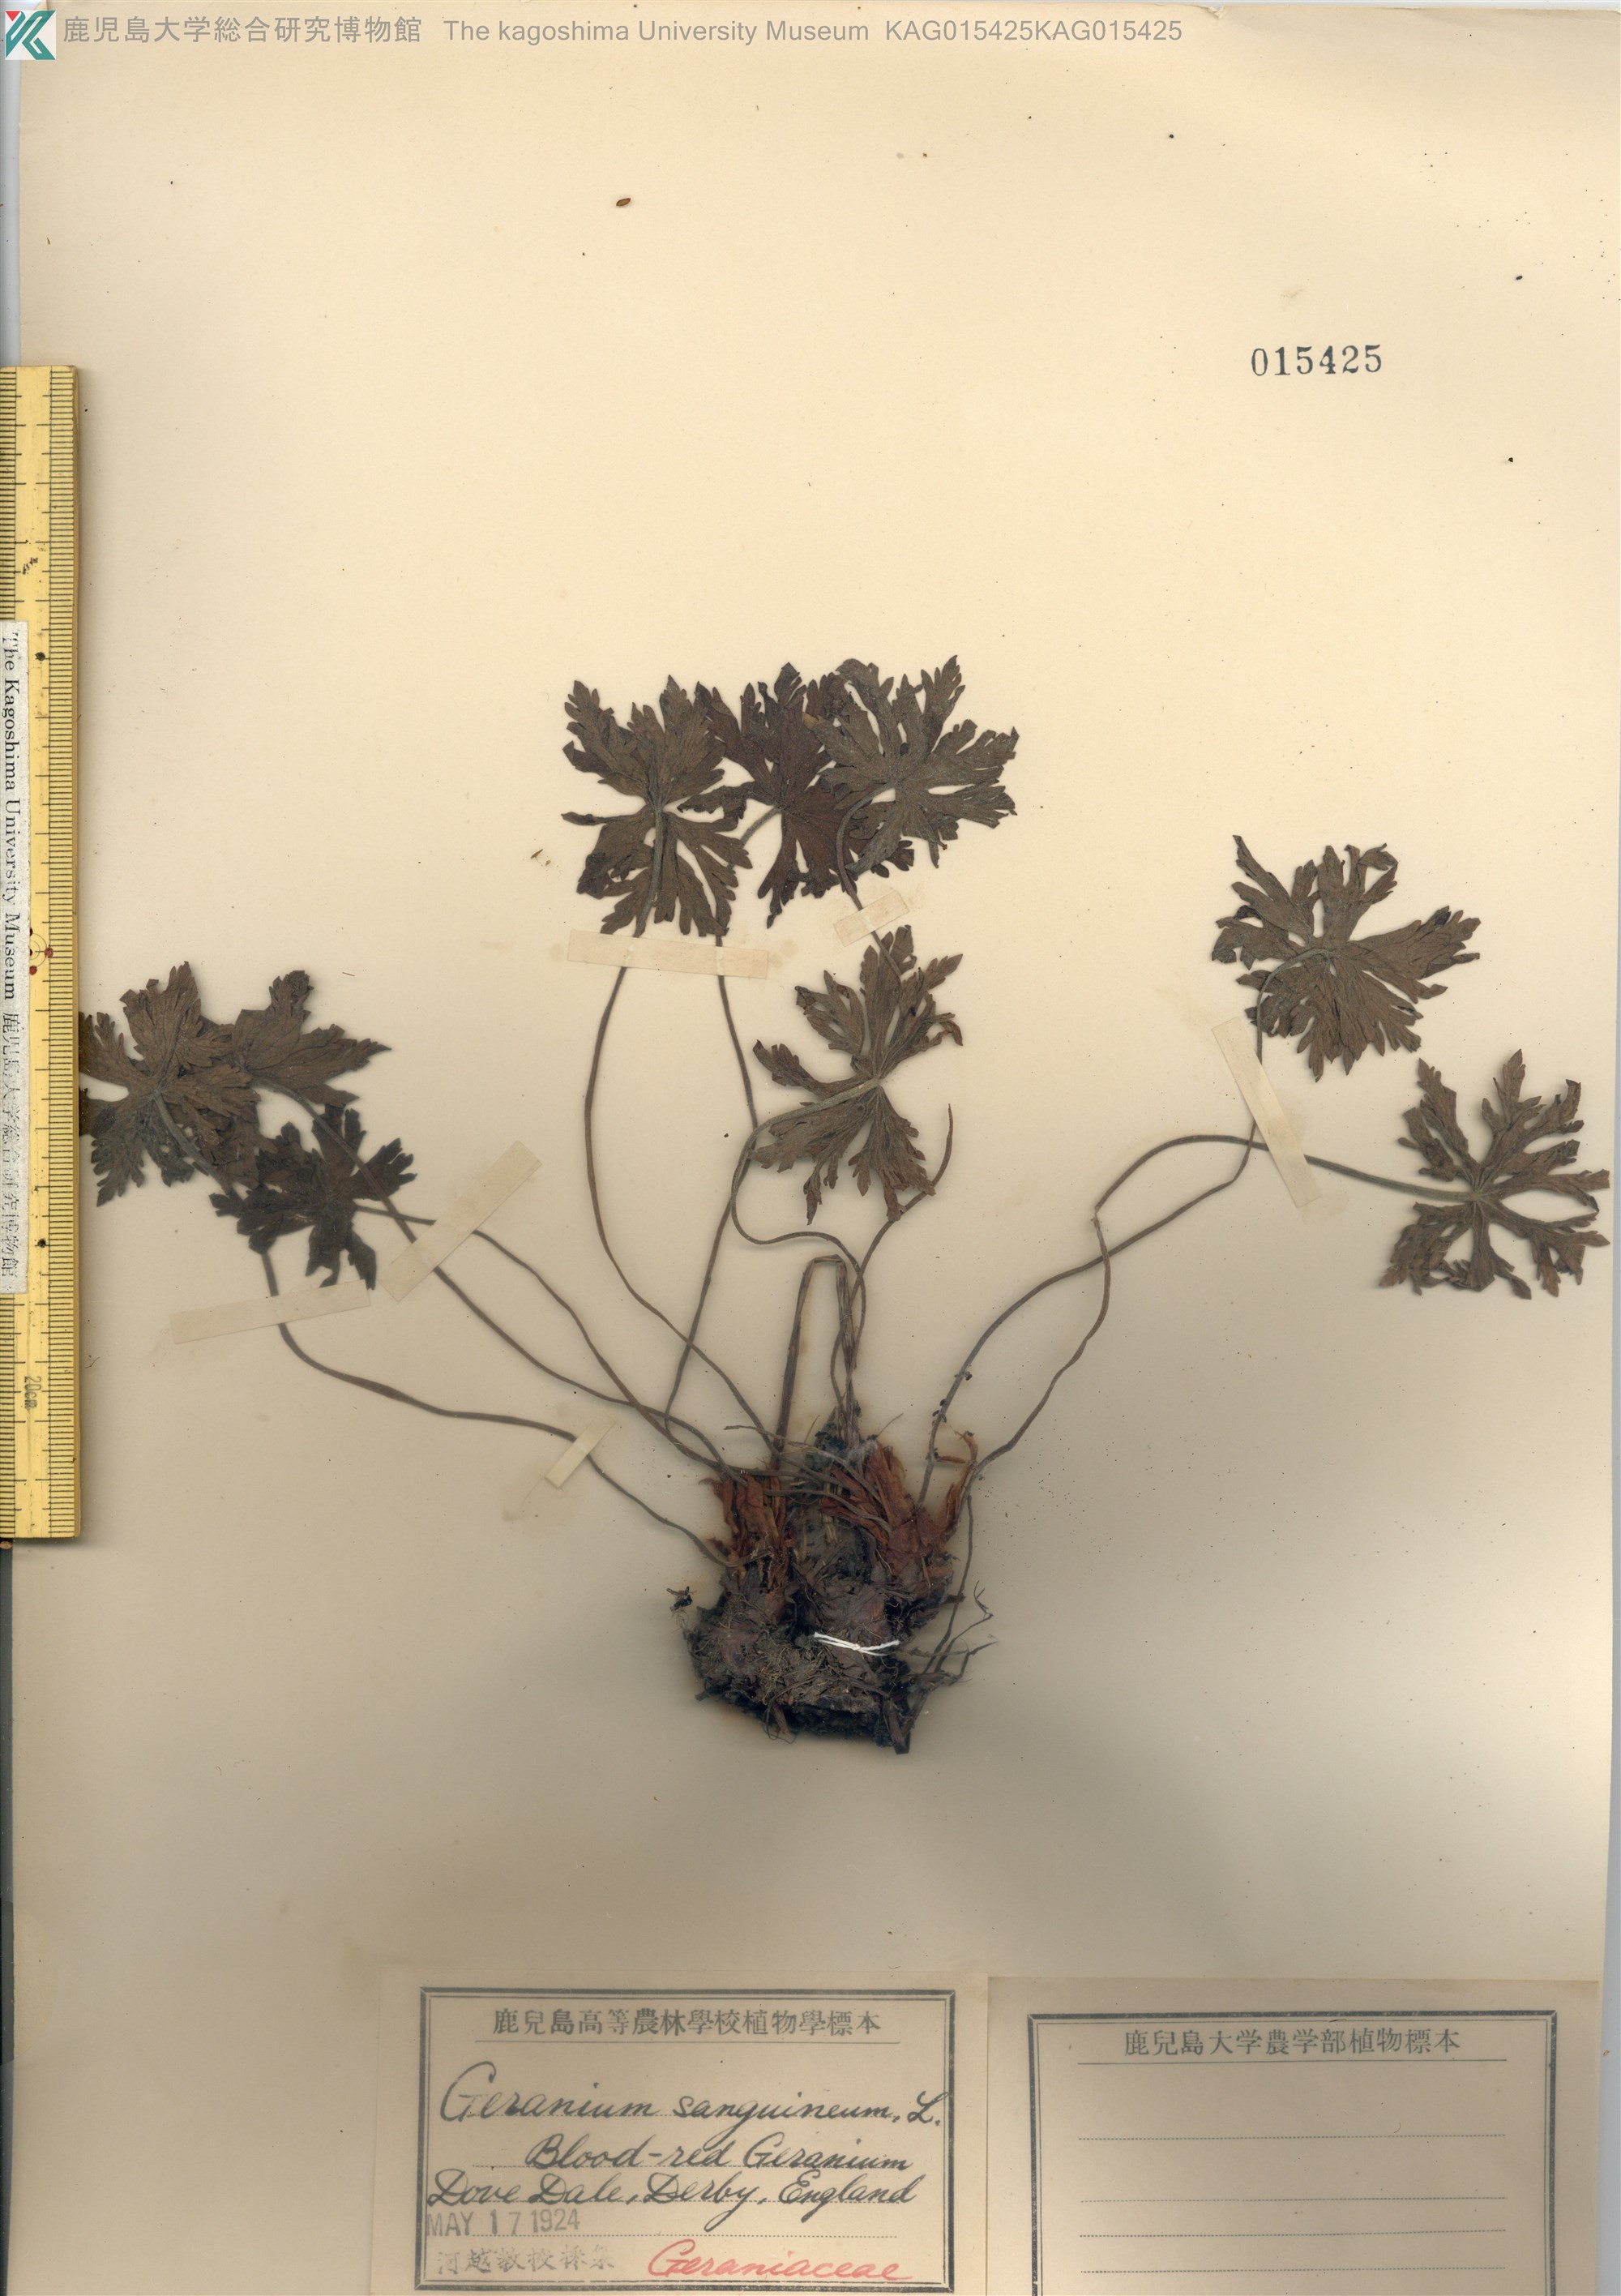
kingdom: Plantae
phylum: Tracheophyta
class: Magnoliopsida
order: Geraniales
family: Geraniaceae
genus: Geranium
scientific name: Geranium sanguineum
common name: Bloody crane's-bill
